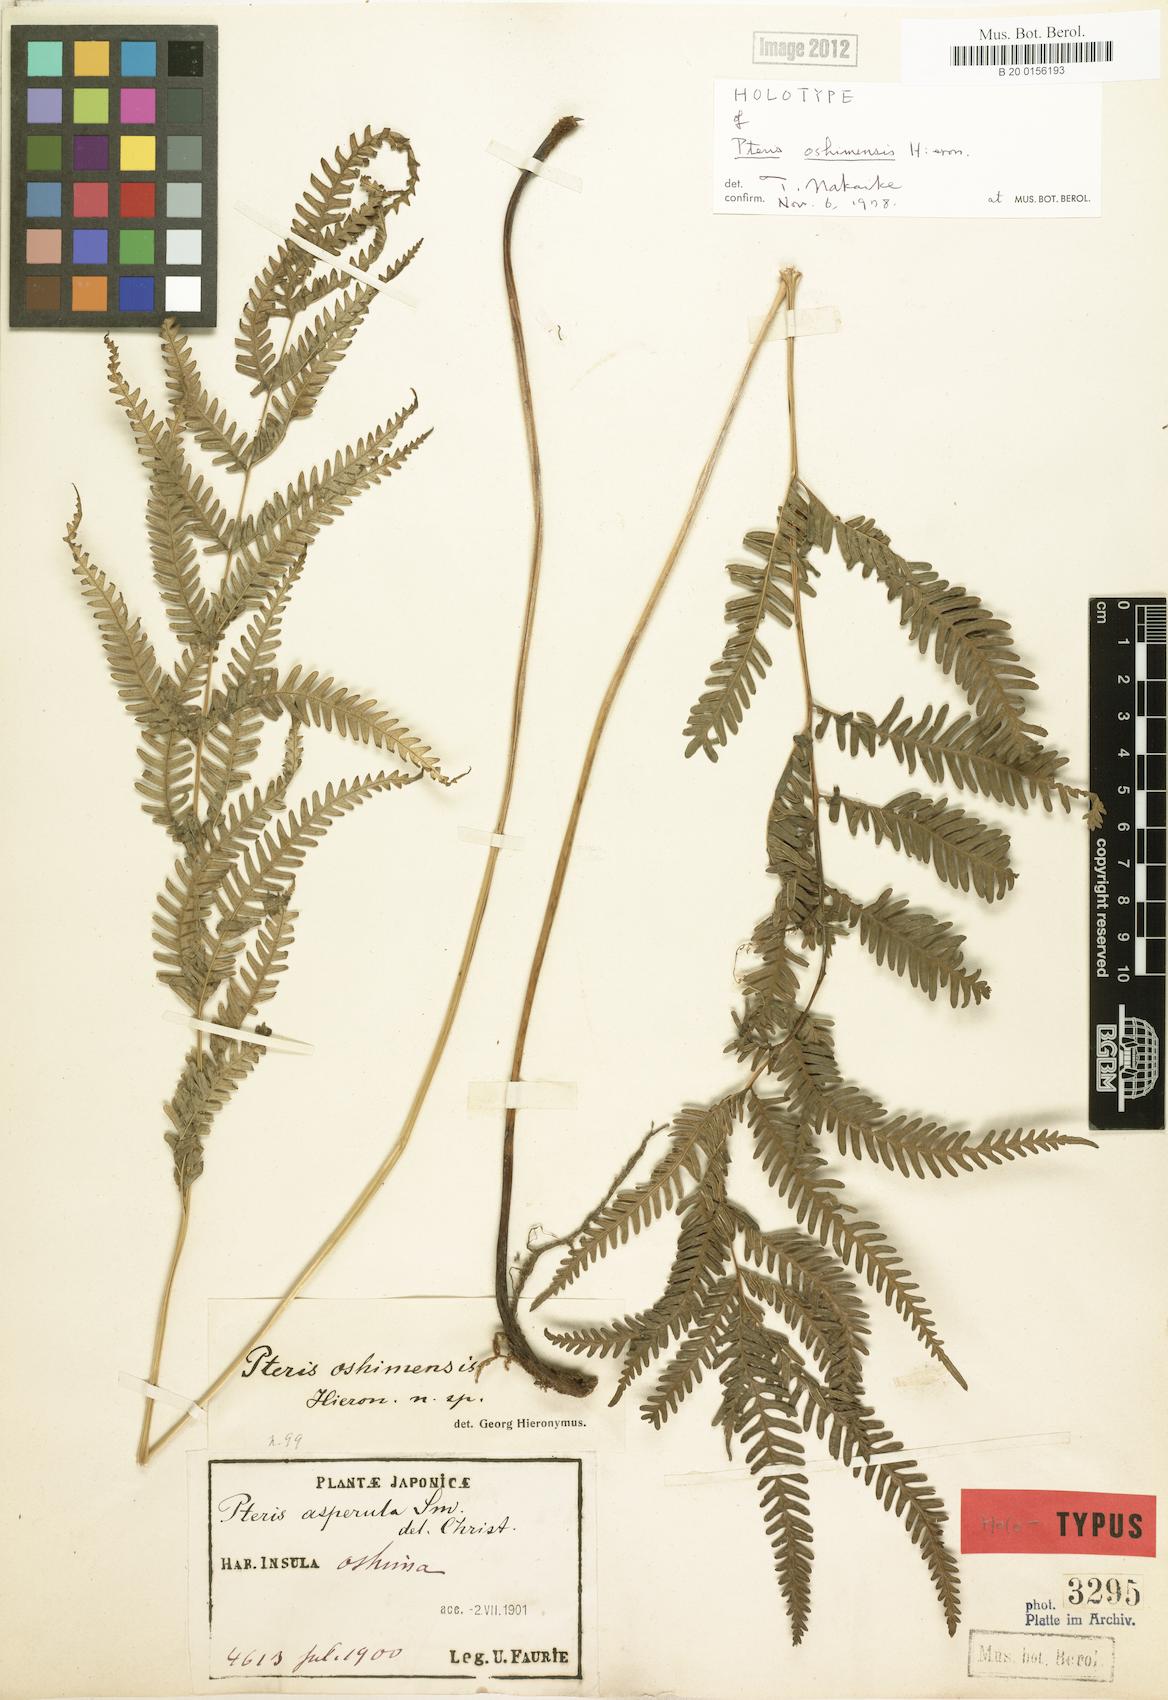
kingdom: Plantae
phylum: Tracheophyta
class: Polypodiopsida
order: Polypodiales
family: Pteridaceae
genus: Pteris
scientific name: Pteris oshimensis
